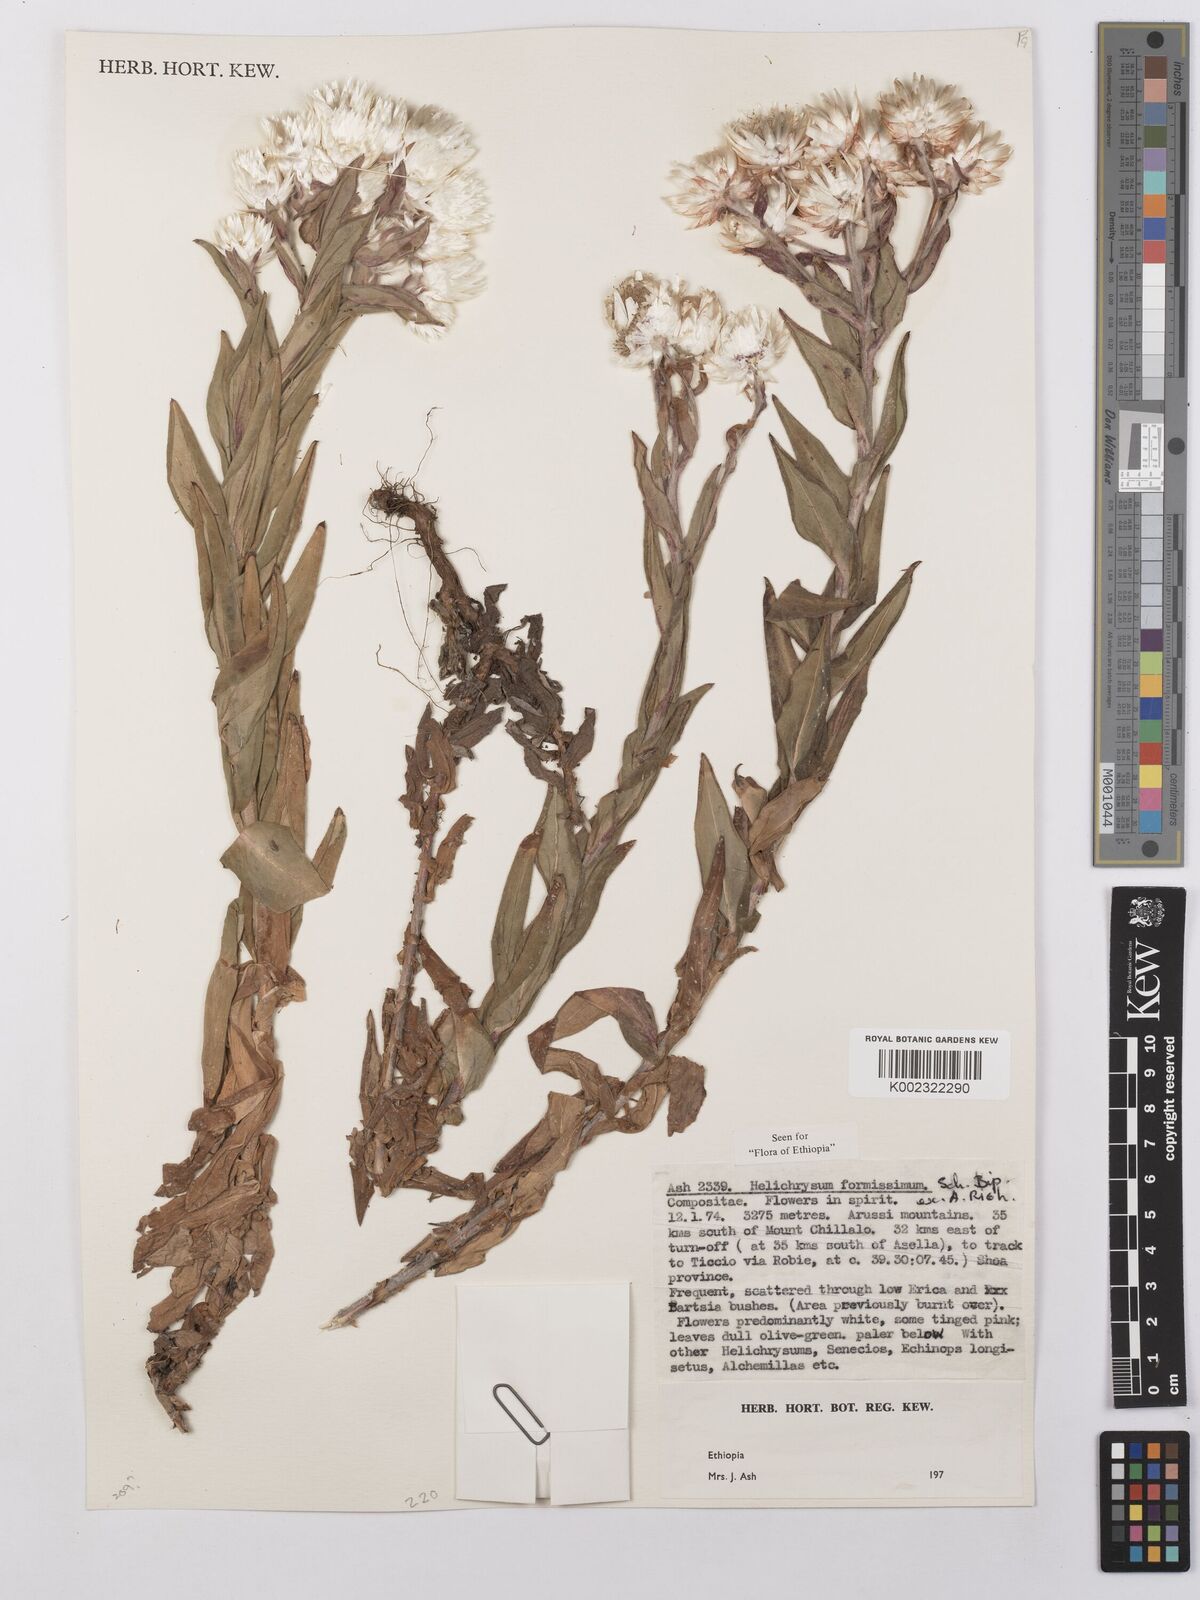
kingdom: Plantae
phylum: Tracheophyta
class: Magnoliopsida
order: Asterales
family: Asteraceae
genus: Helichrysum
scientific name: Helichrysum formosissimum
